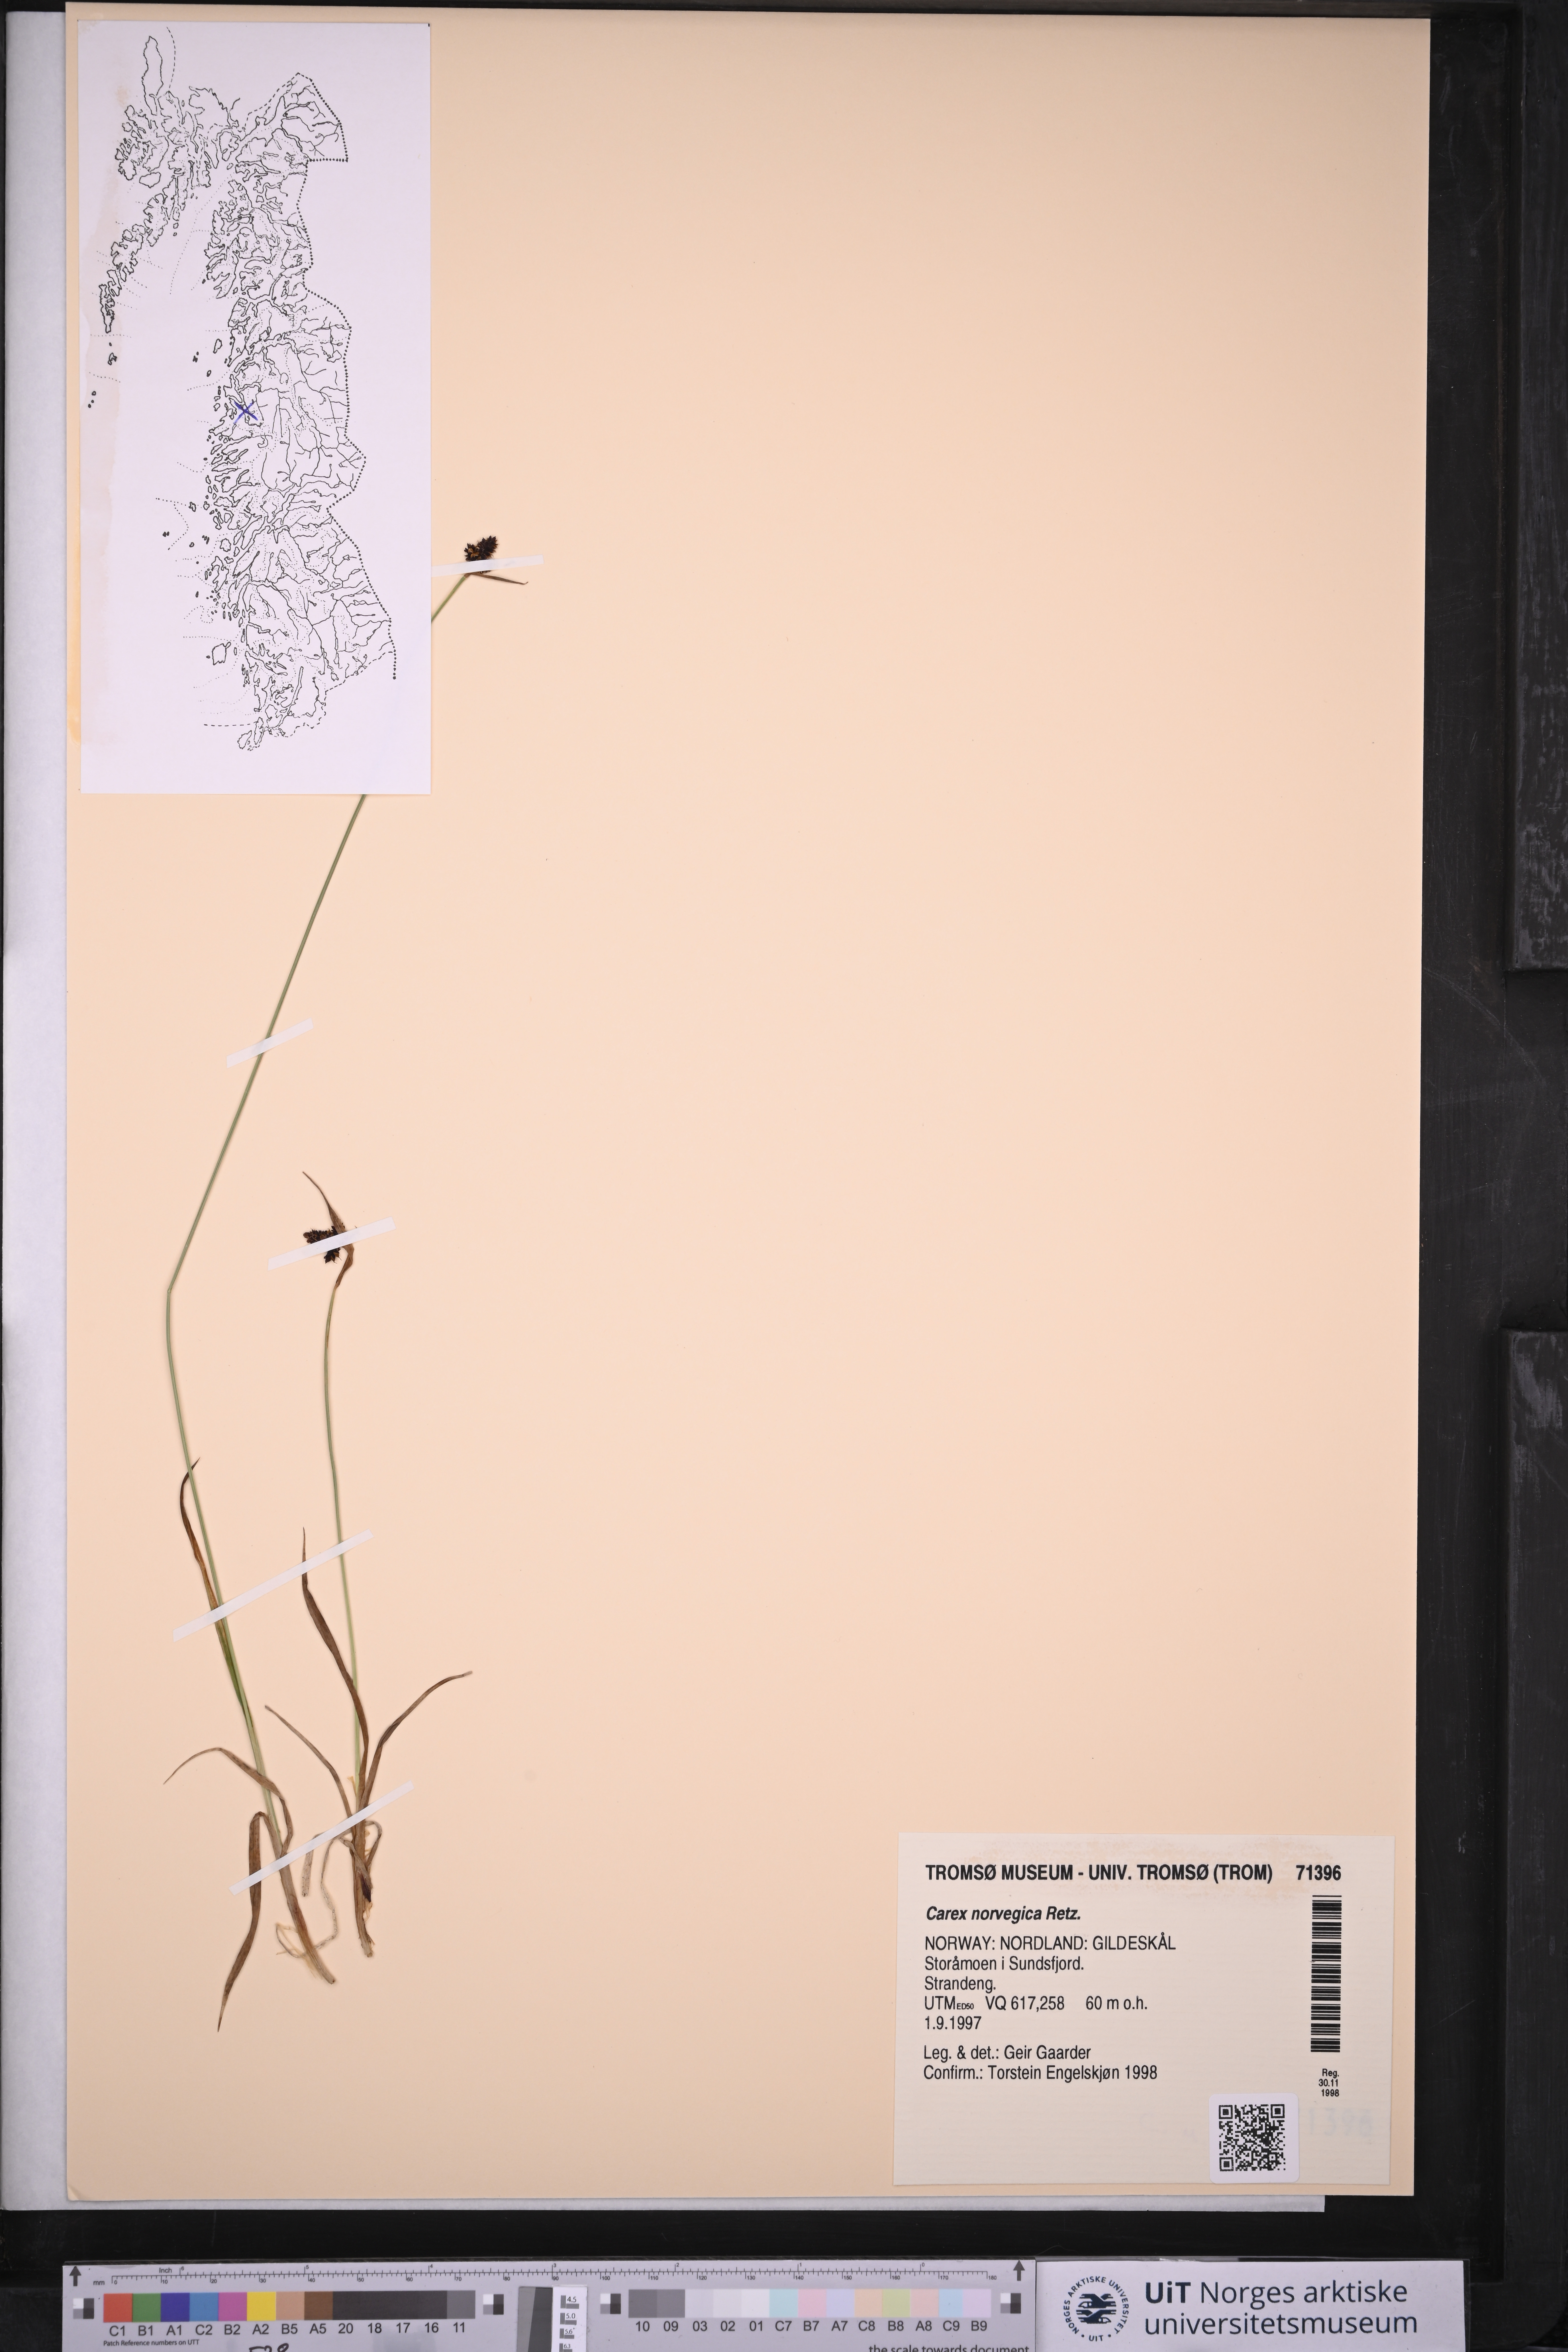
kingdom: Plantae
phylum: Tracheophyta
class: Liliopsida
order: Poales
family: Cyperaceae
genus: Carex
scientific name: Carex norvegica
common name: Close-headed alpine-sedge
